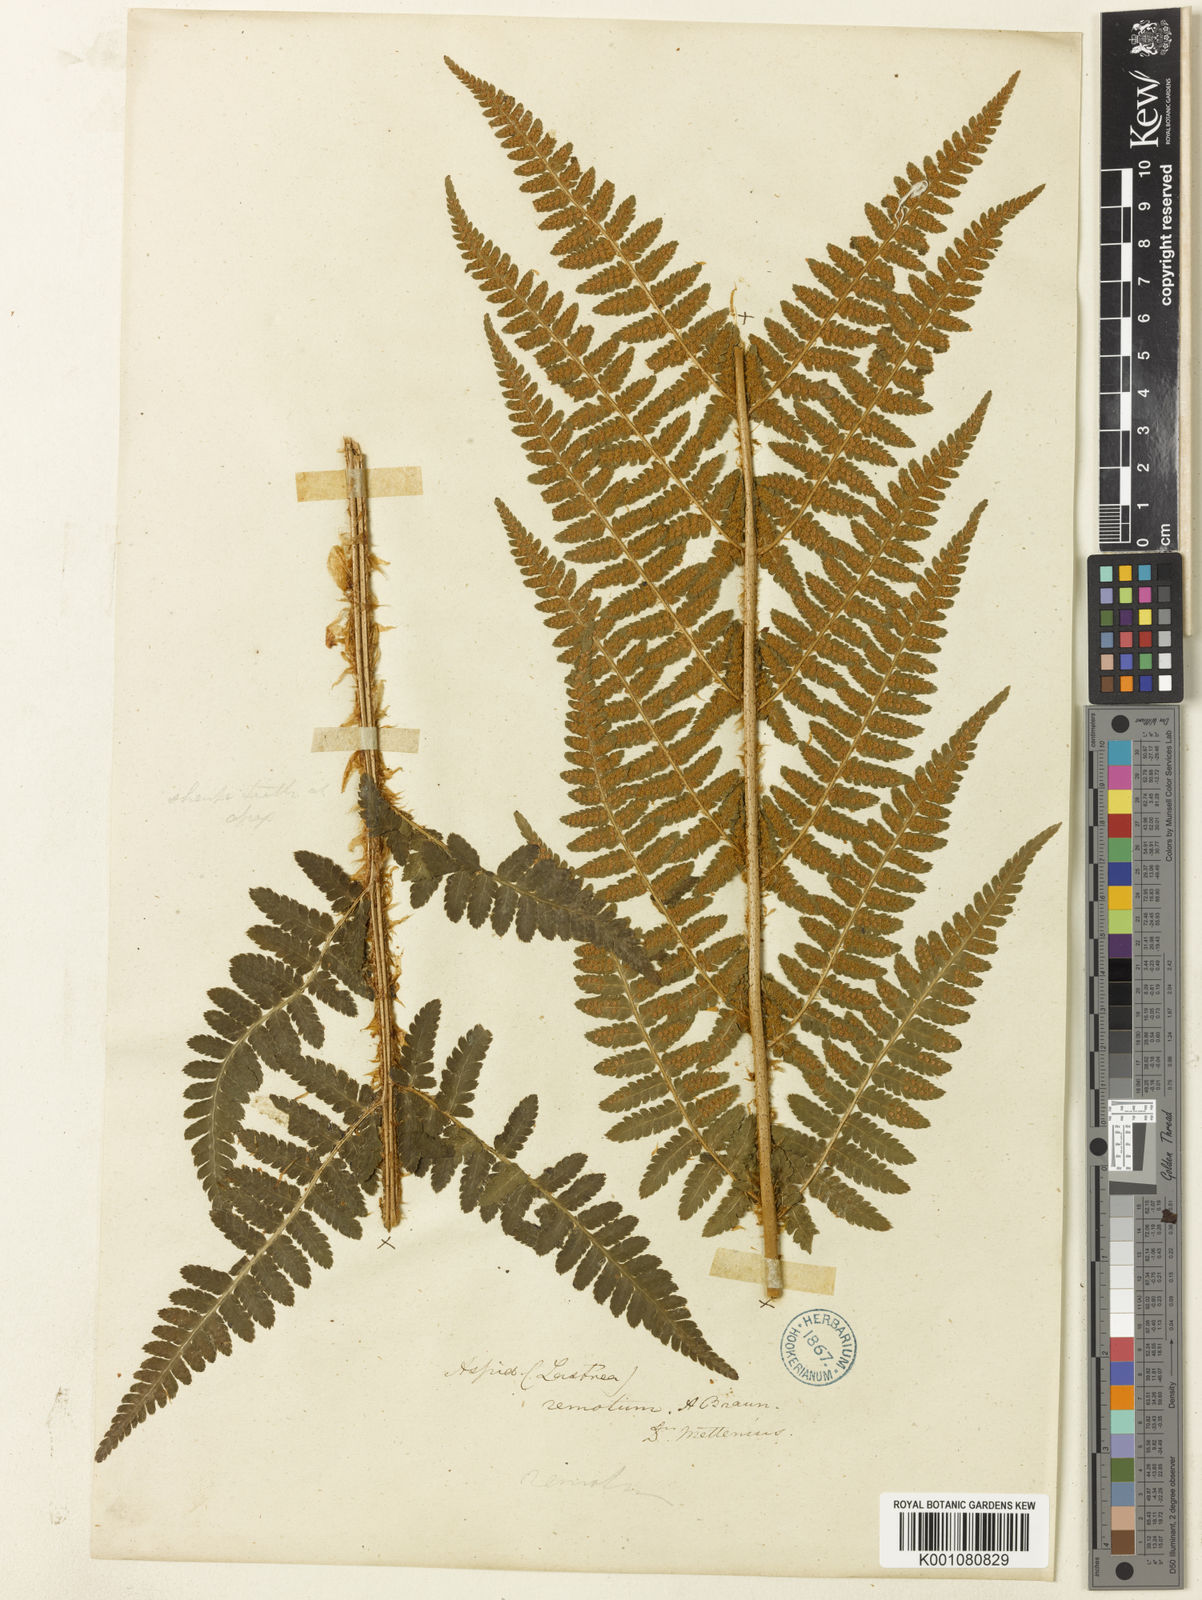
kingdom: Plantae
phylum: Tracheophyta
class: Polypodiopsida
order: Polypodiales
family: Dryopteridaceae
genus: Dryopteris
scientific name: Dryopteris affinis
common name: Scaly male fern
